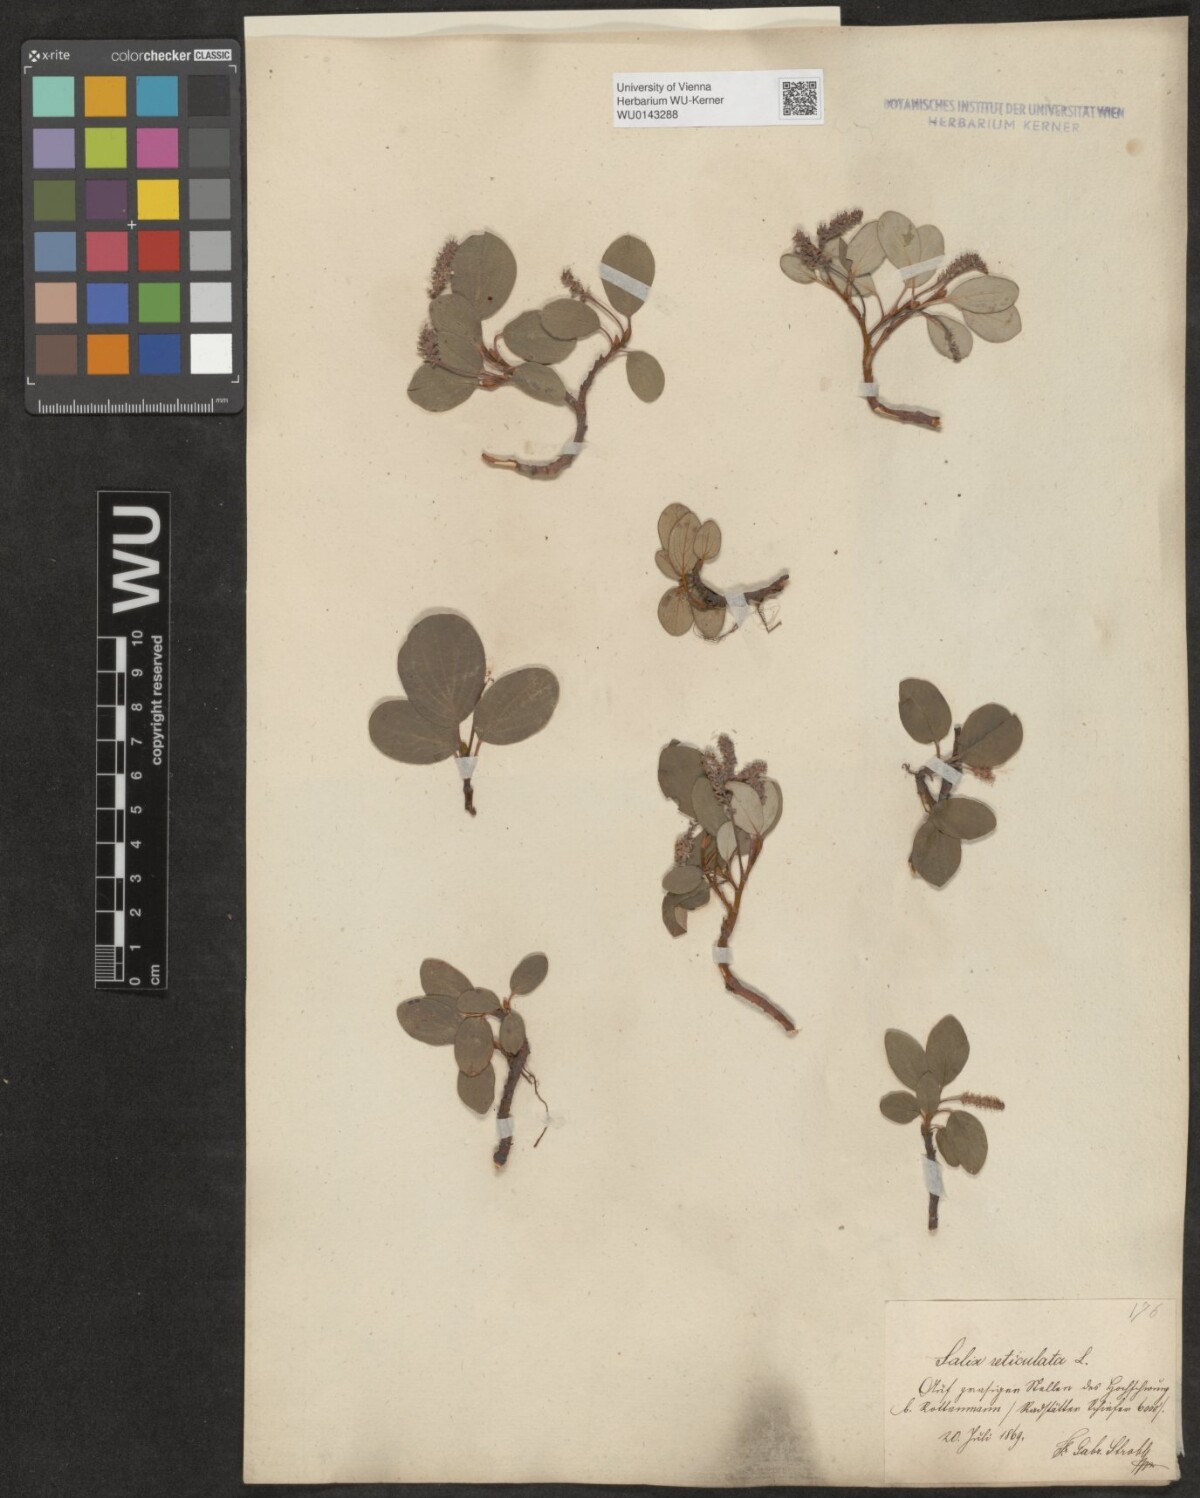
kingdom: Plantae
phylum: Tracheophyta
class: Magnoliopsida
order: Malpighiales
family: Salicaceae
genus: Salix
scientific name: Salix reticulata
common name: Net-leaved willow
